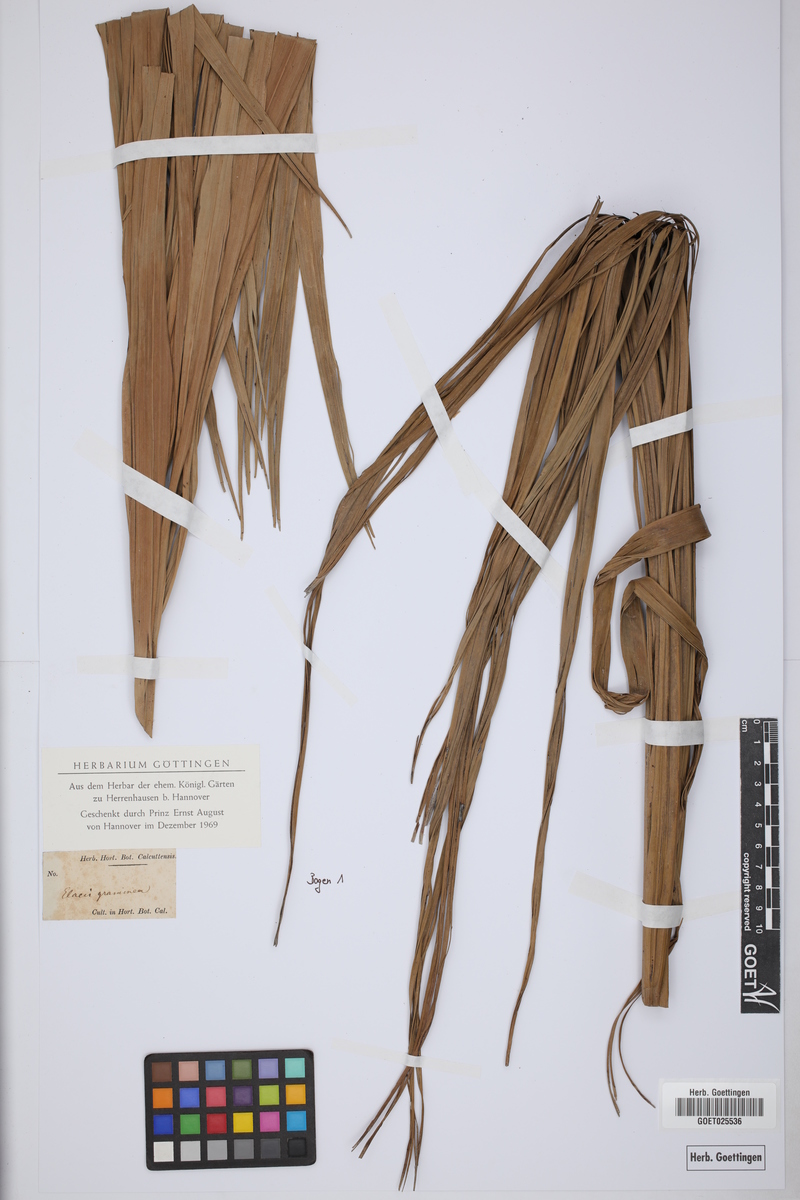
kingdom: Plantae
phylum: Tracheophyta
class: Liliopsida
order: Arecales
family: Arecaceae
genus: Elaeis
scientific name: Elaeis
